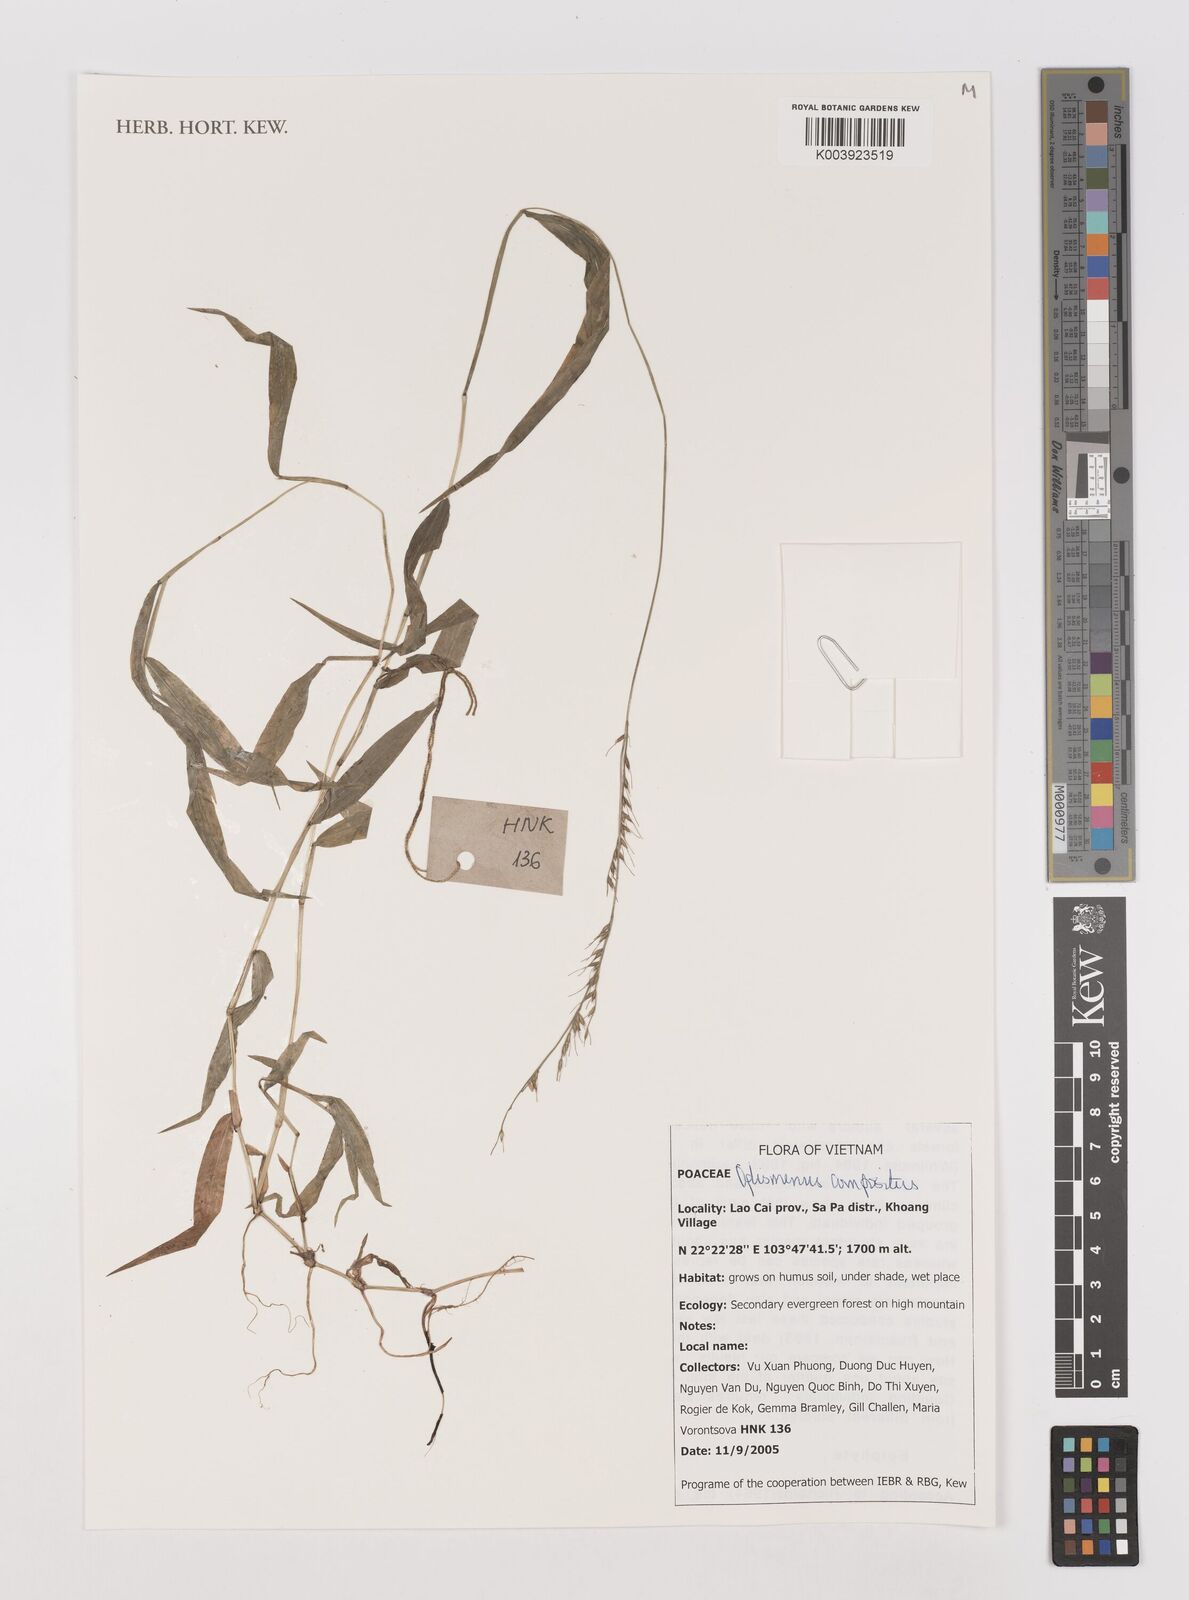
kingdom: Plantae
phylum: Tracheophyta
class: Liliopsida
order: Poales
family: Poaceae
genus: Oplismenus
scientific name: Oplismenus compositus
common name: Running mountain grass
